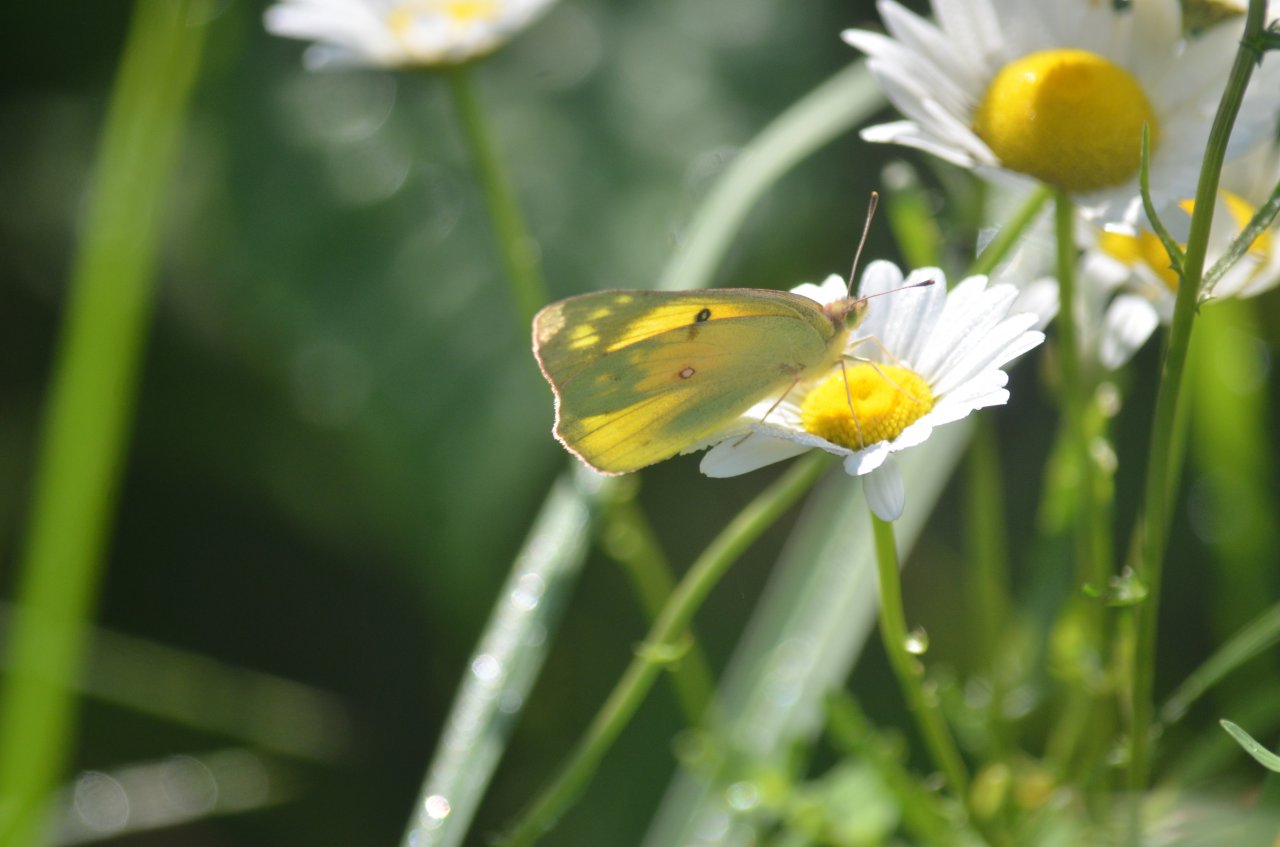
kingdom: Animalia
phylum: Arthropoda
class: Insecta
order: Lepidoptera
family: Pieridae
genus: Colias
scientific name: Colias eurytheme
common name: Orange Sulphur
